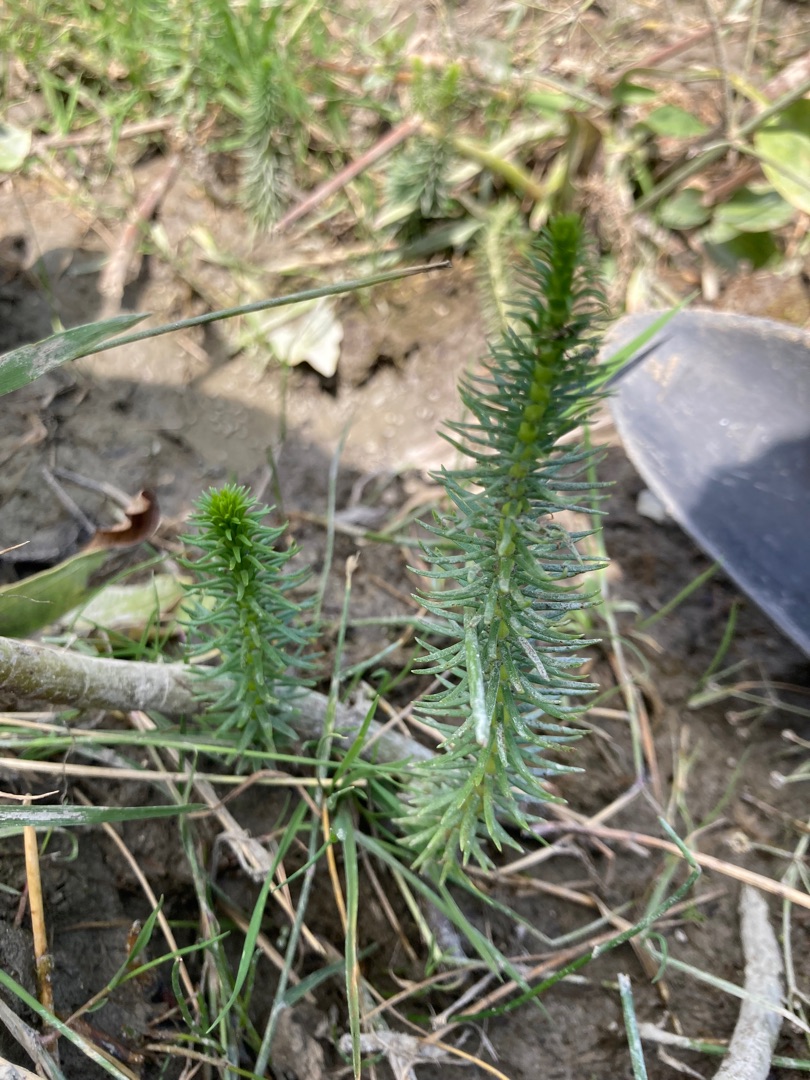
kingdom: Plantae
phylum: Tracheophyta
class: Magnoliopsida
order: Lamiales
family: Plantaginaceae
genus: Hippuris
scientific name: Hippuris vulgaris
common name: Vandspir
